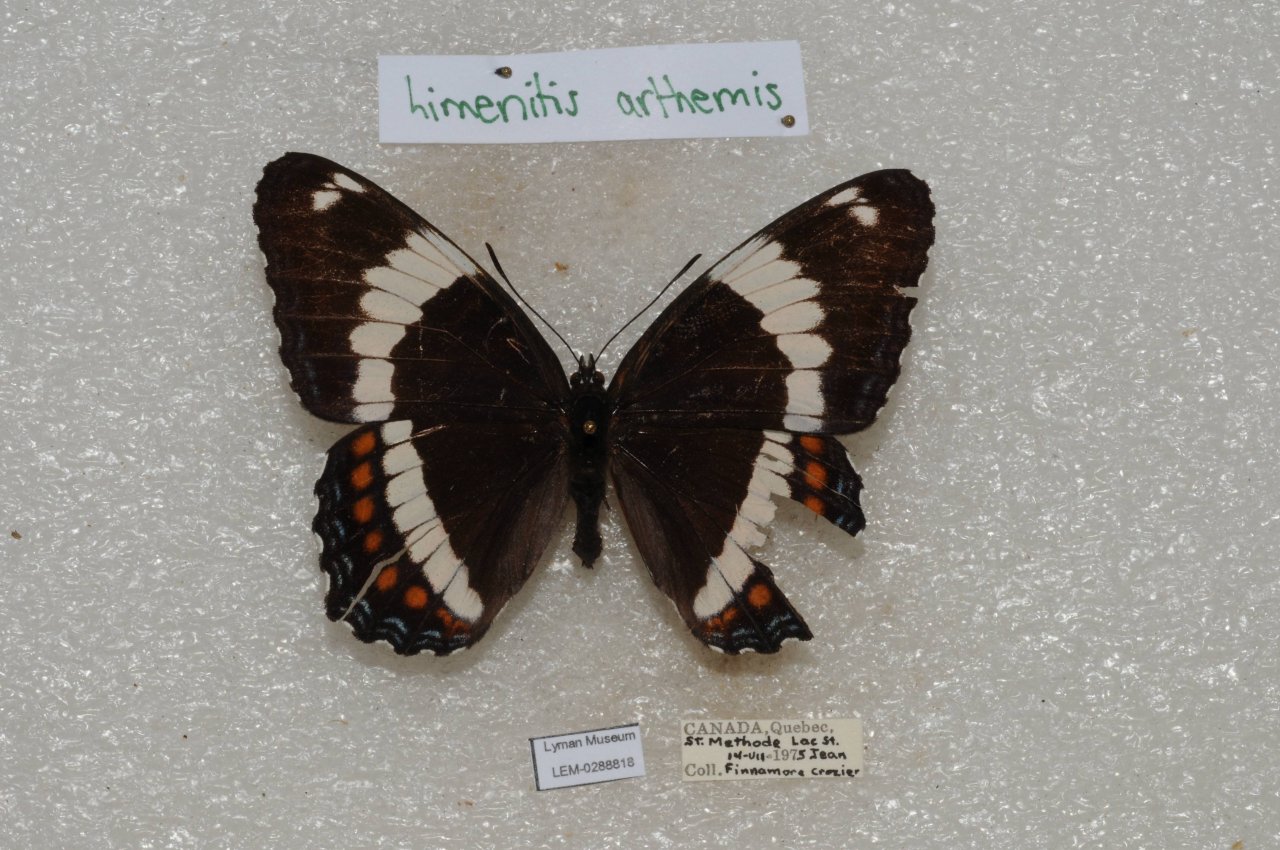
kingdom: Animalia
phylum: Arthropoda
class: Insecta
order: Lepidoptera
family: Nymphalidae
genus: Limenitis
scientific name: Limenitis arthemis
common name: Red-spotted Admiral
